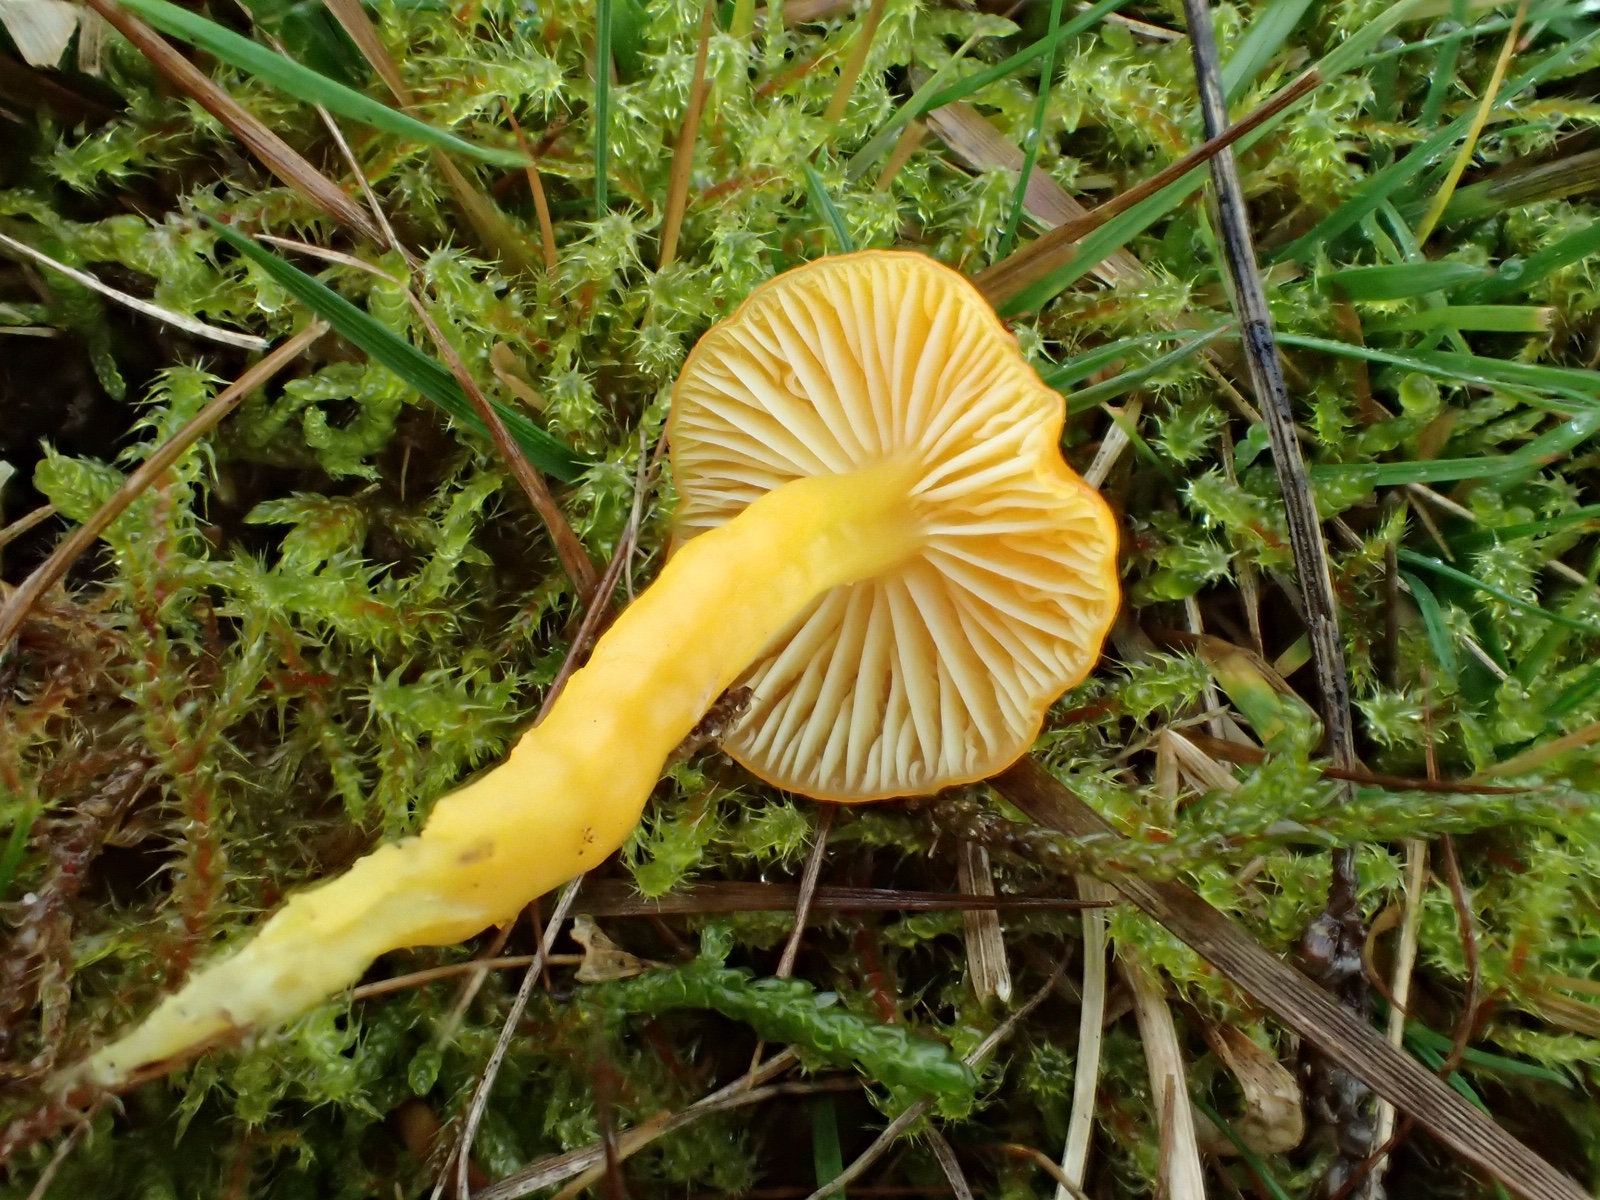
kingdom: Fungi
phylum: Basidiomycota
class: Agaricomycetes
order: Agaricales
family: Hygrophoraceae
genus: Hygrocybe
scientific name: Hygrocybe ceracea
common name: voksgul vokshat
